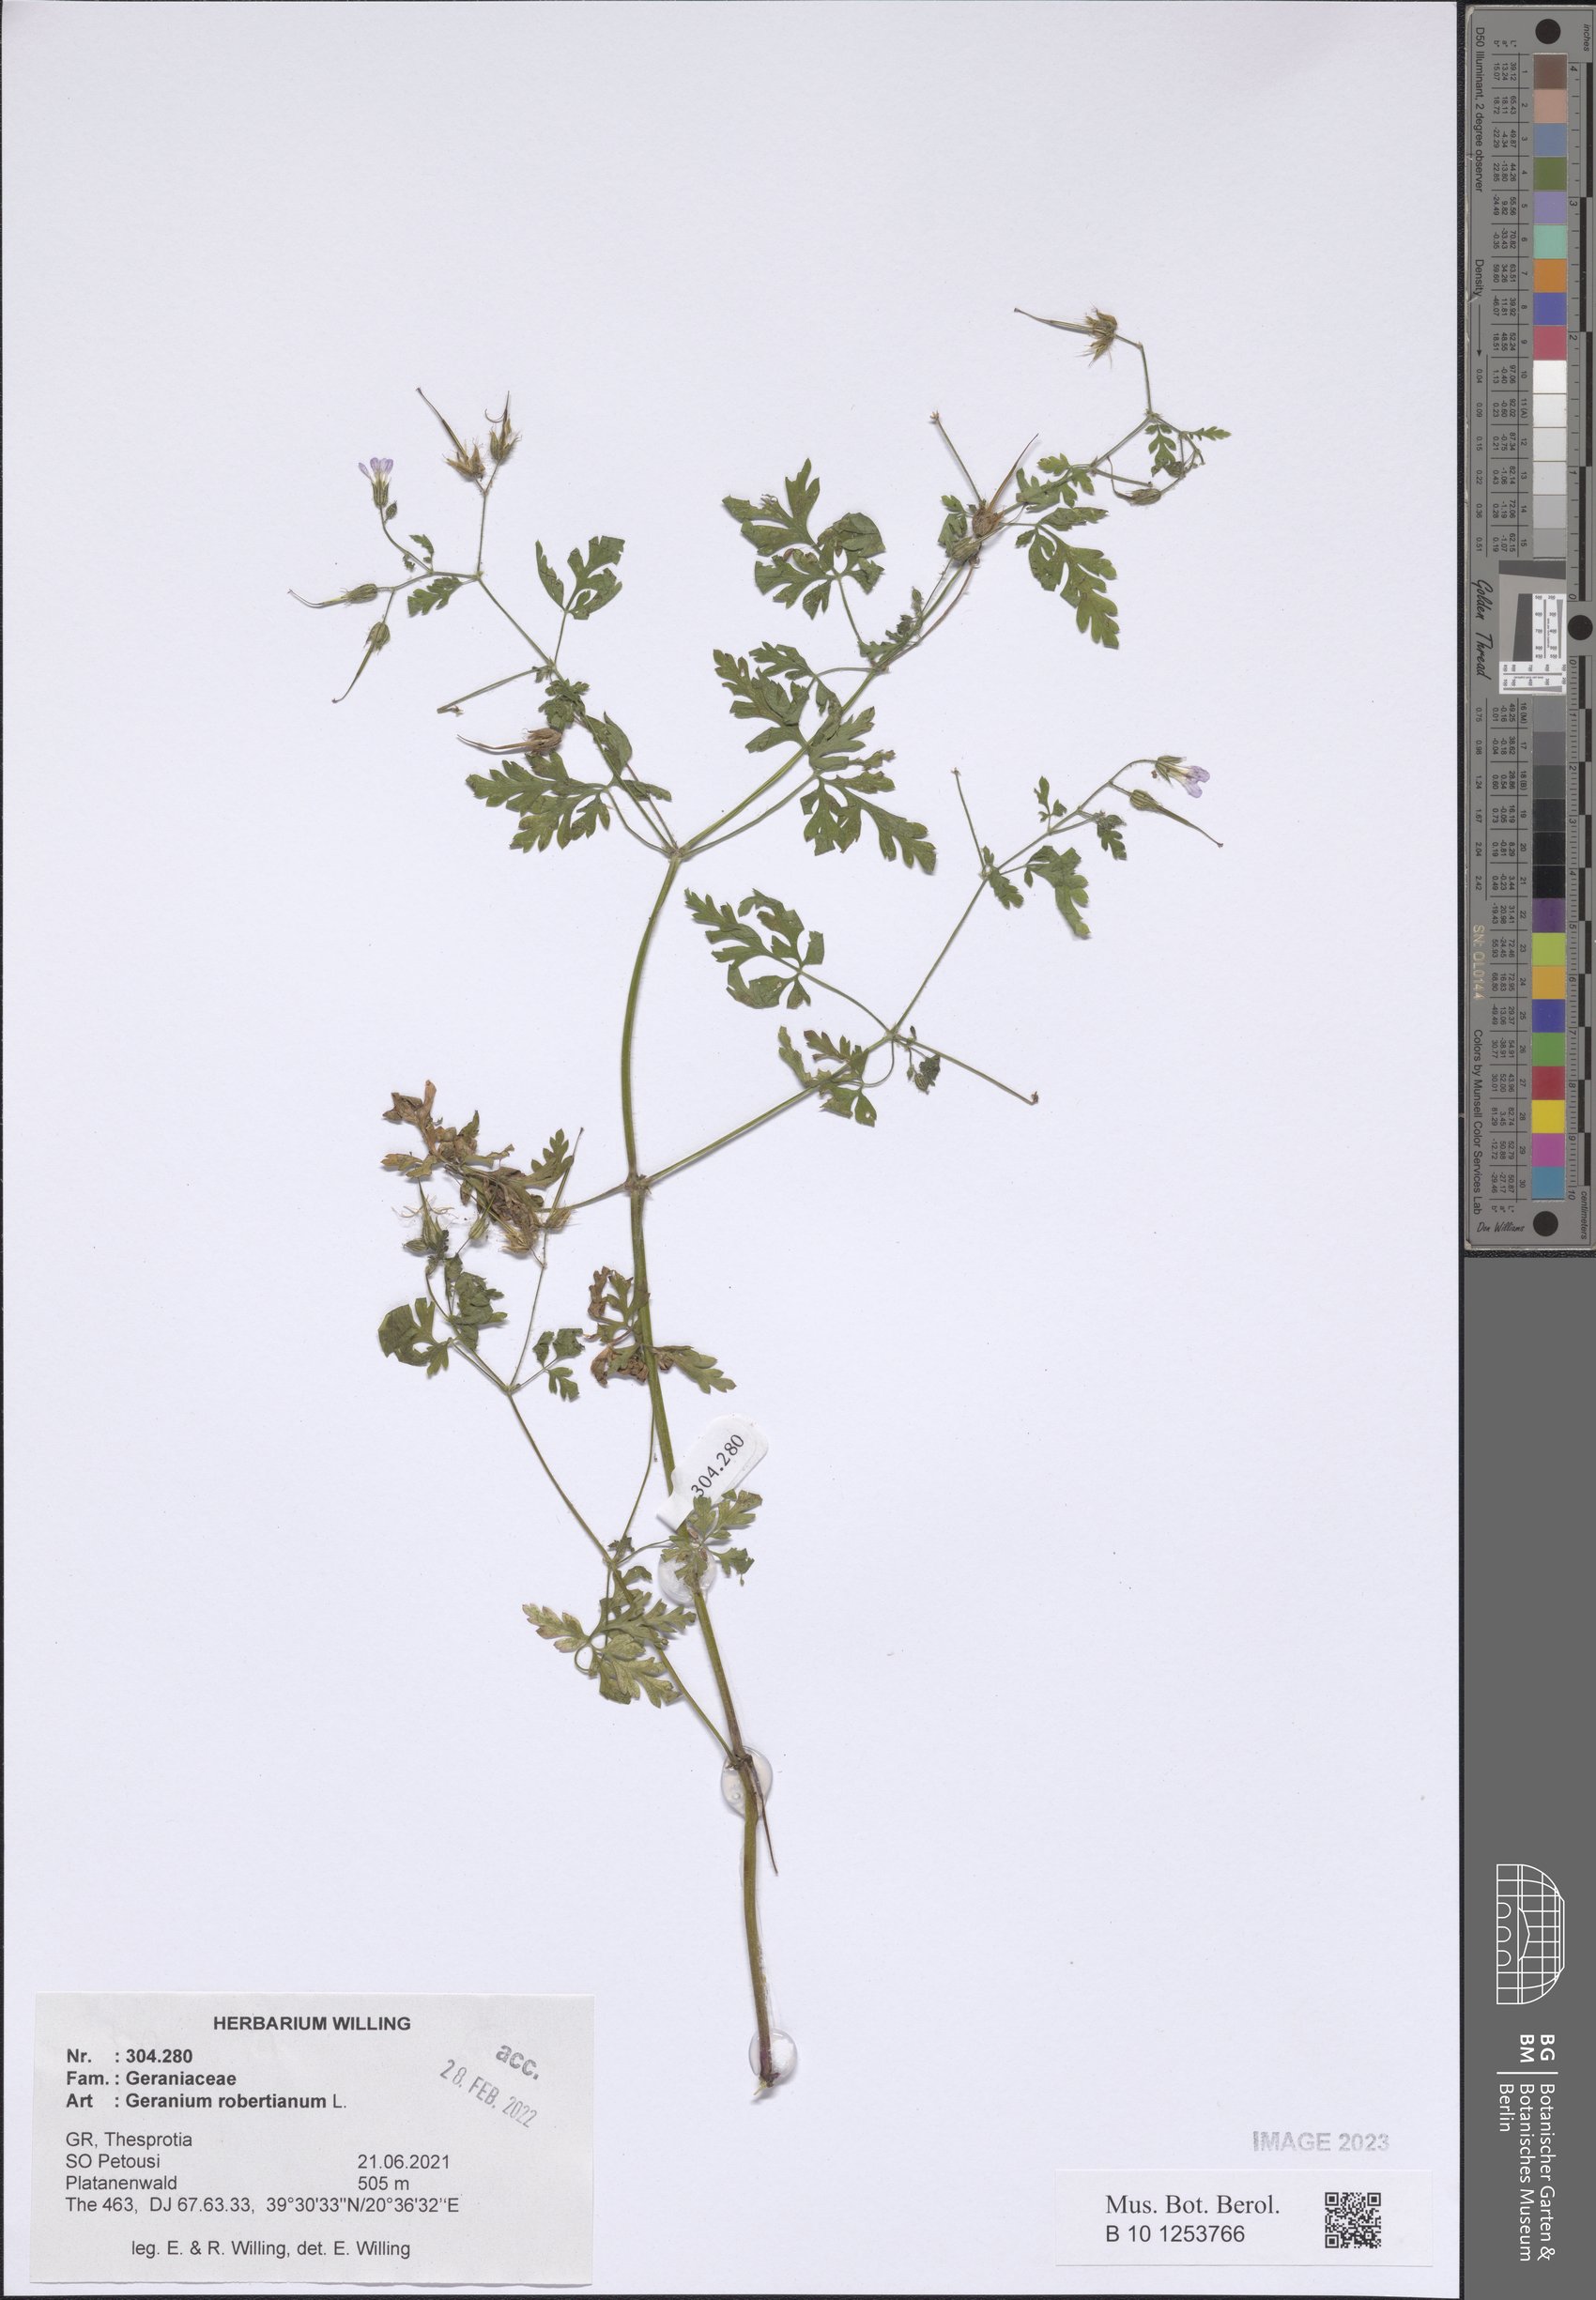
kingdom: Plantae
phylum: Tracheophyta
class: Magnoliopsida
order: Geraniales
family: Geraniaceae
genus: Geranium
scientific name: Geranium robertianum
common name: Herb-robert
